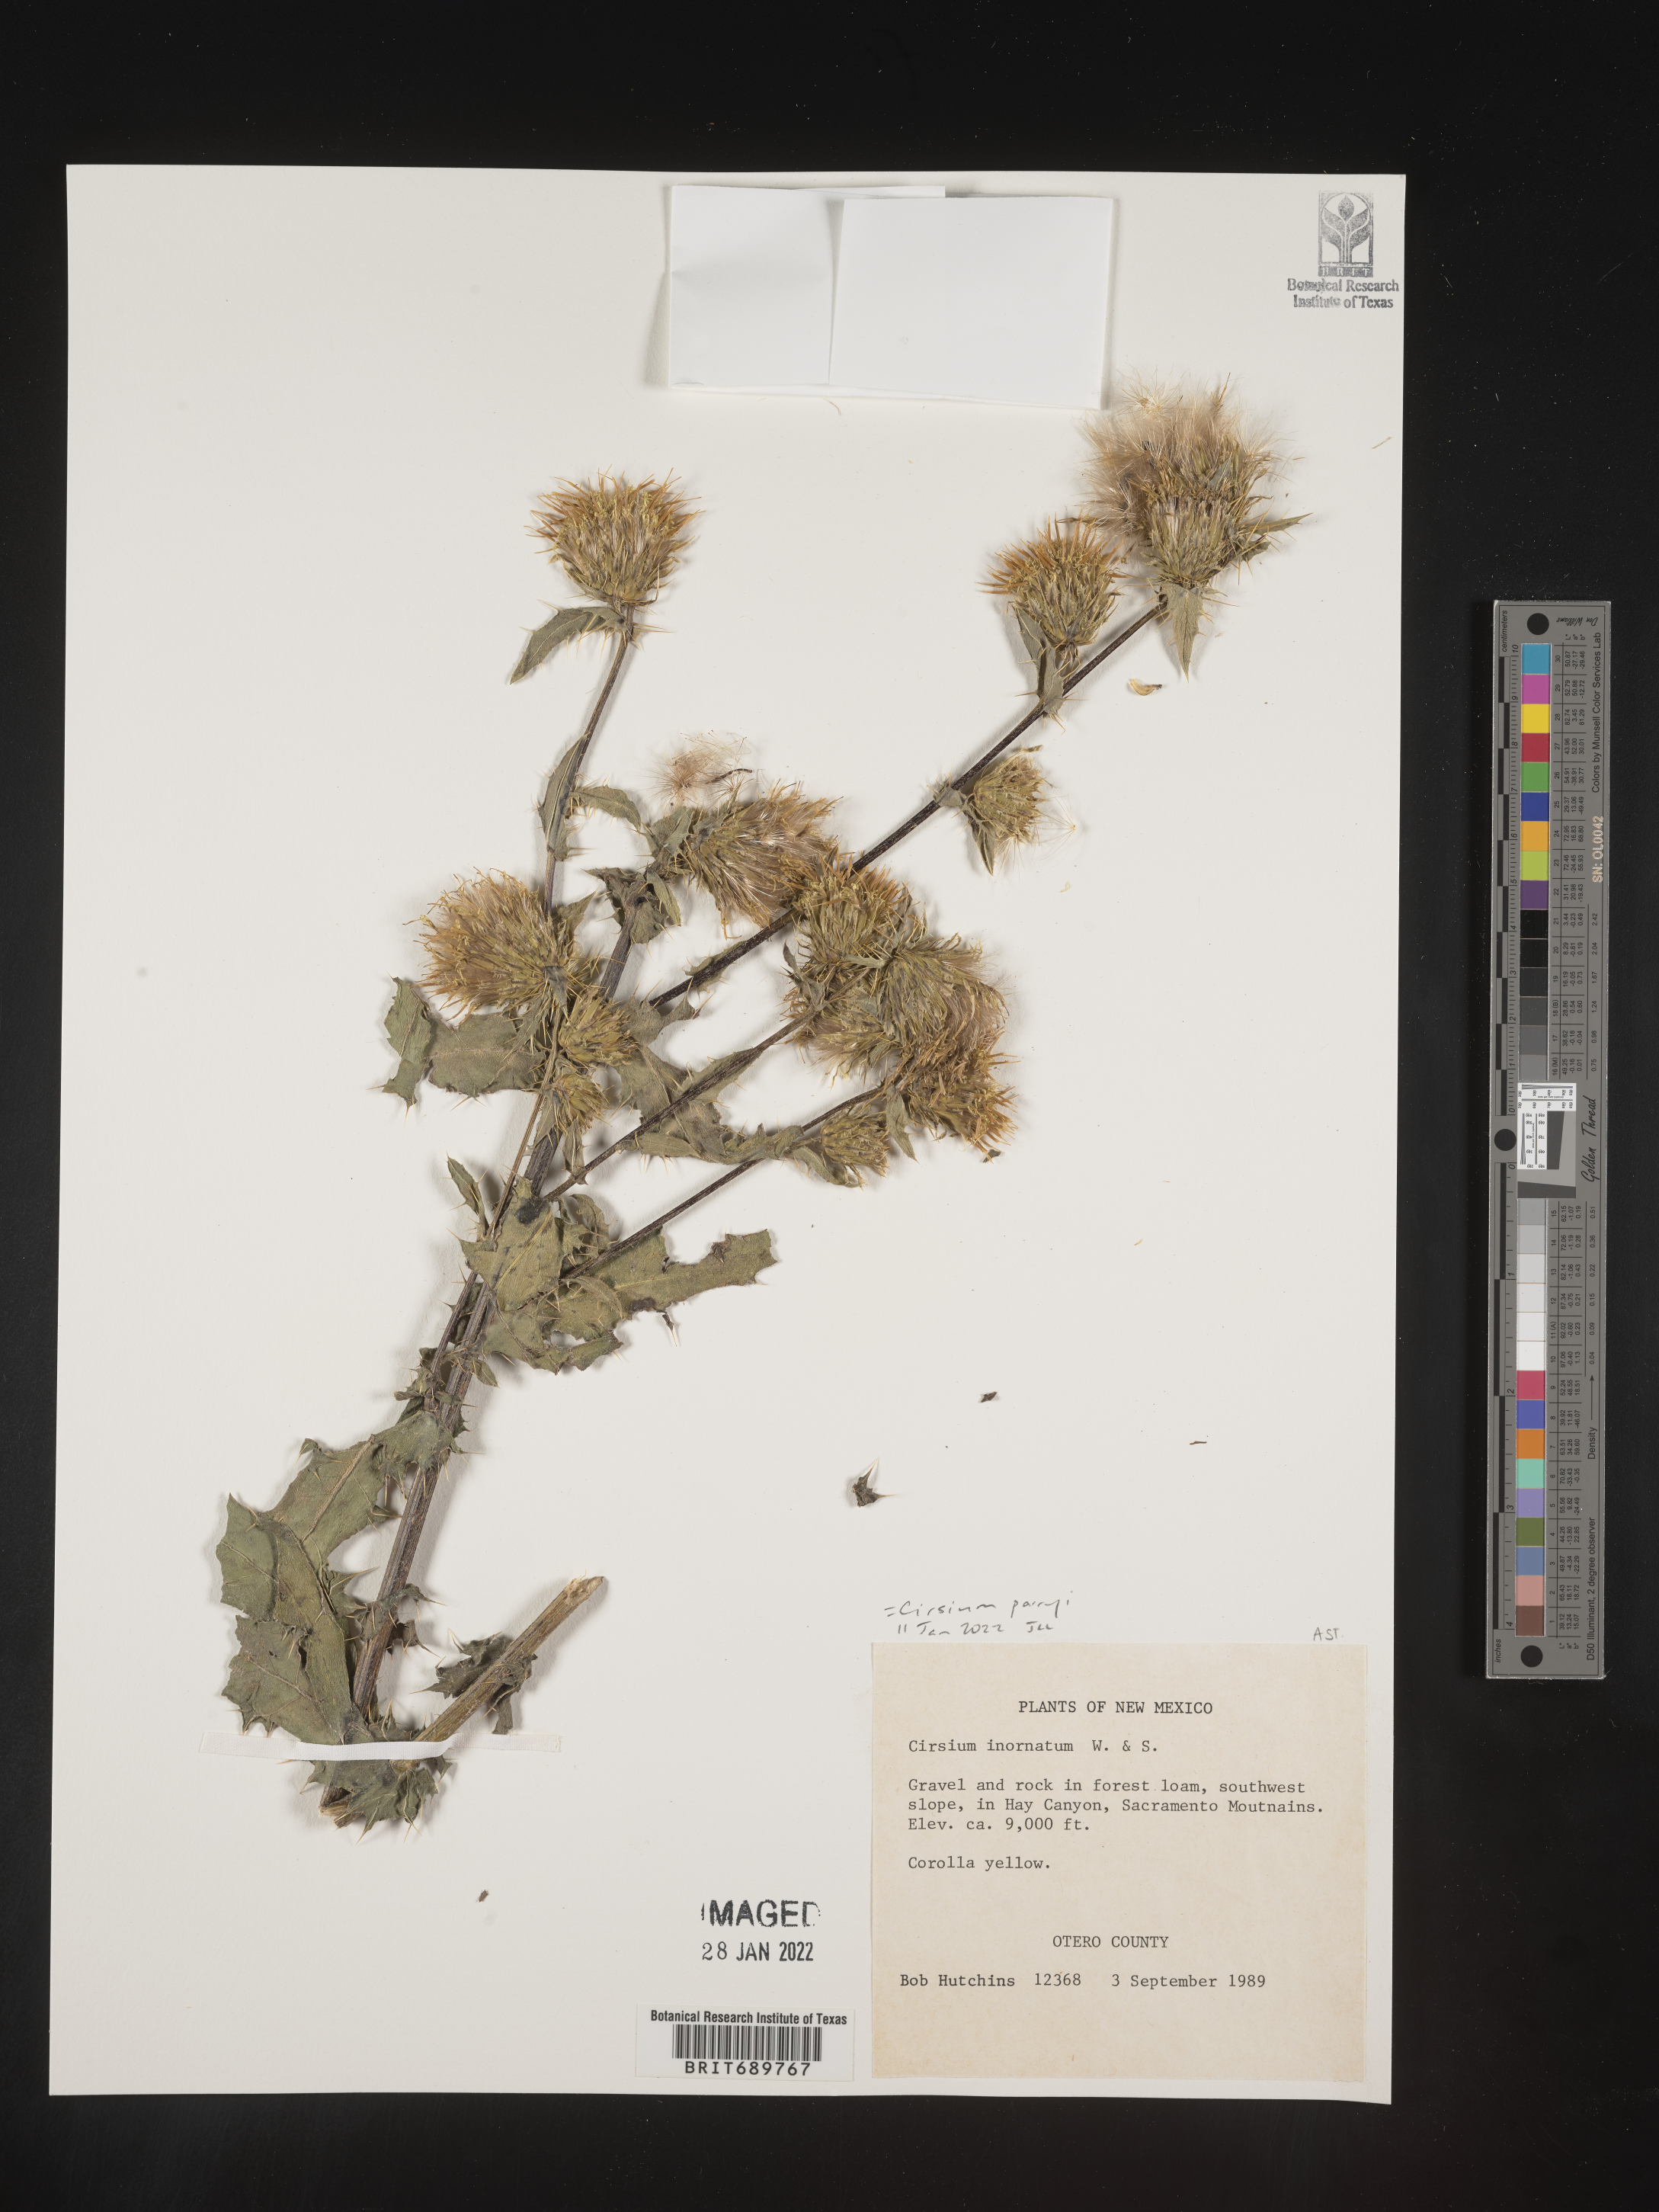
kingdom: Plantae
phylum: Tracheophyta
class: Magnoliopsida
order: Asterales
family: Asteraceae
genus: Cirsium
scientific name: Cirsium parryi
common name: Parry's thistle
